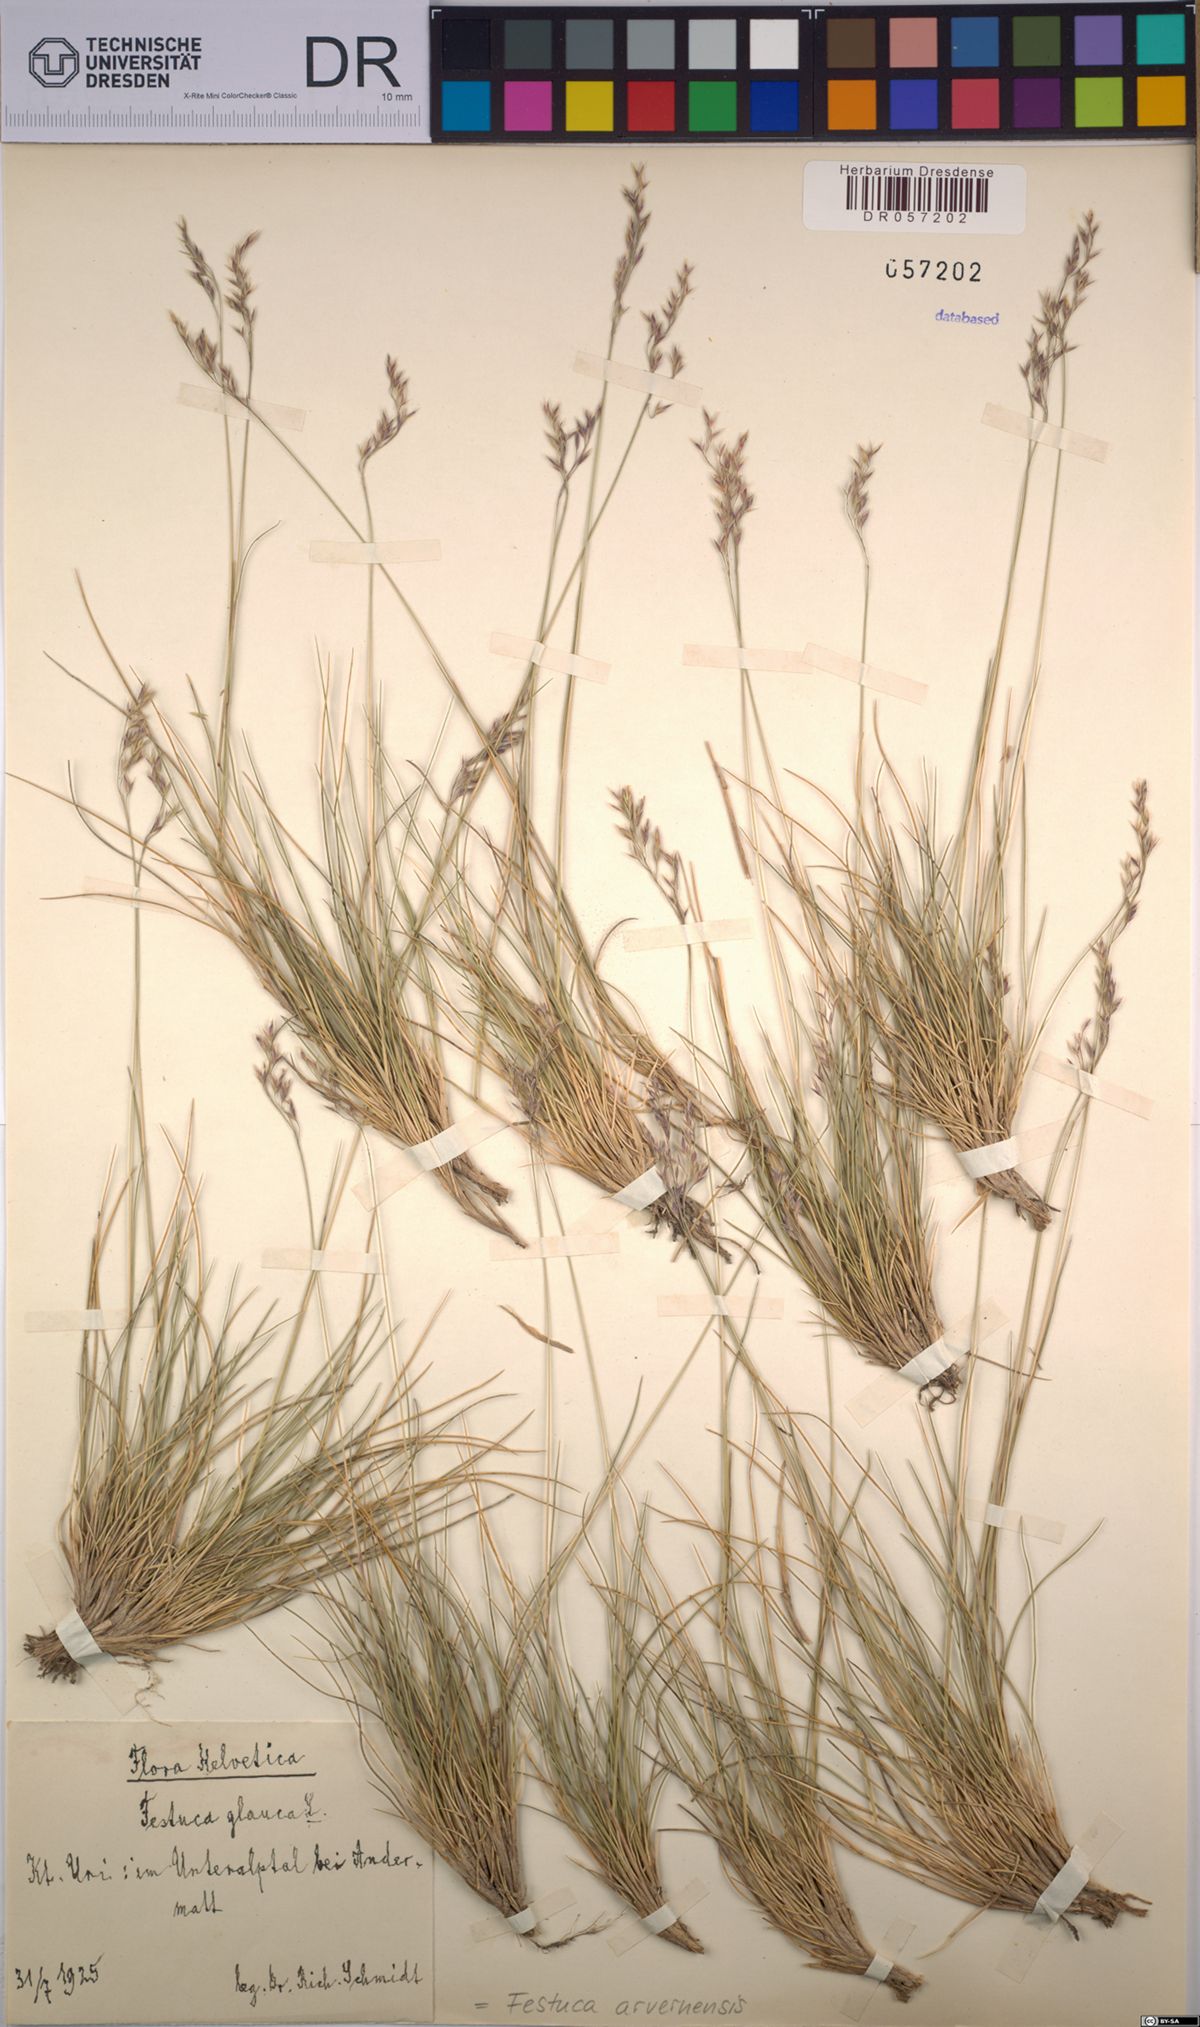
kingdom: Plantae
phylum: Tracheophyta
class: Liliopsida
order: Poales
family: Poaceae
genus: Festuca
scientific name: Festuca arvernensis
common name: Field fescue
